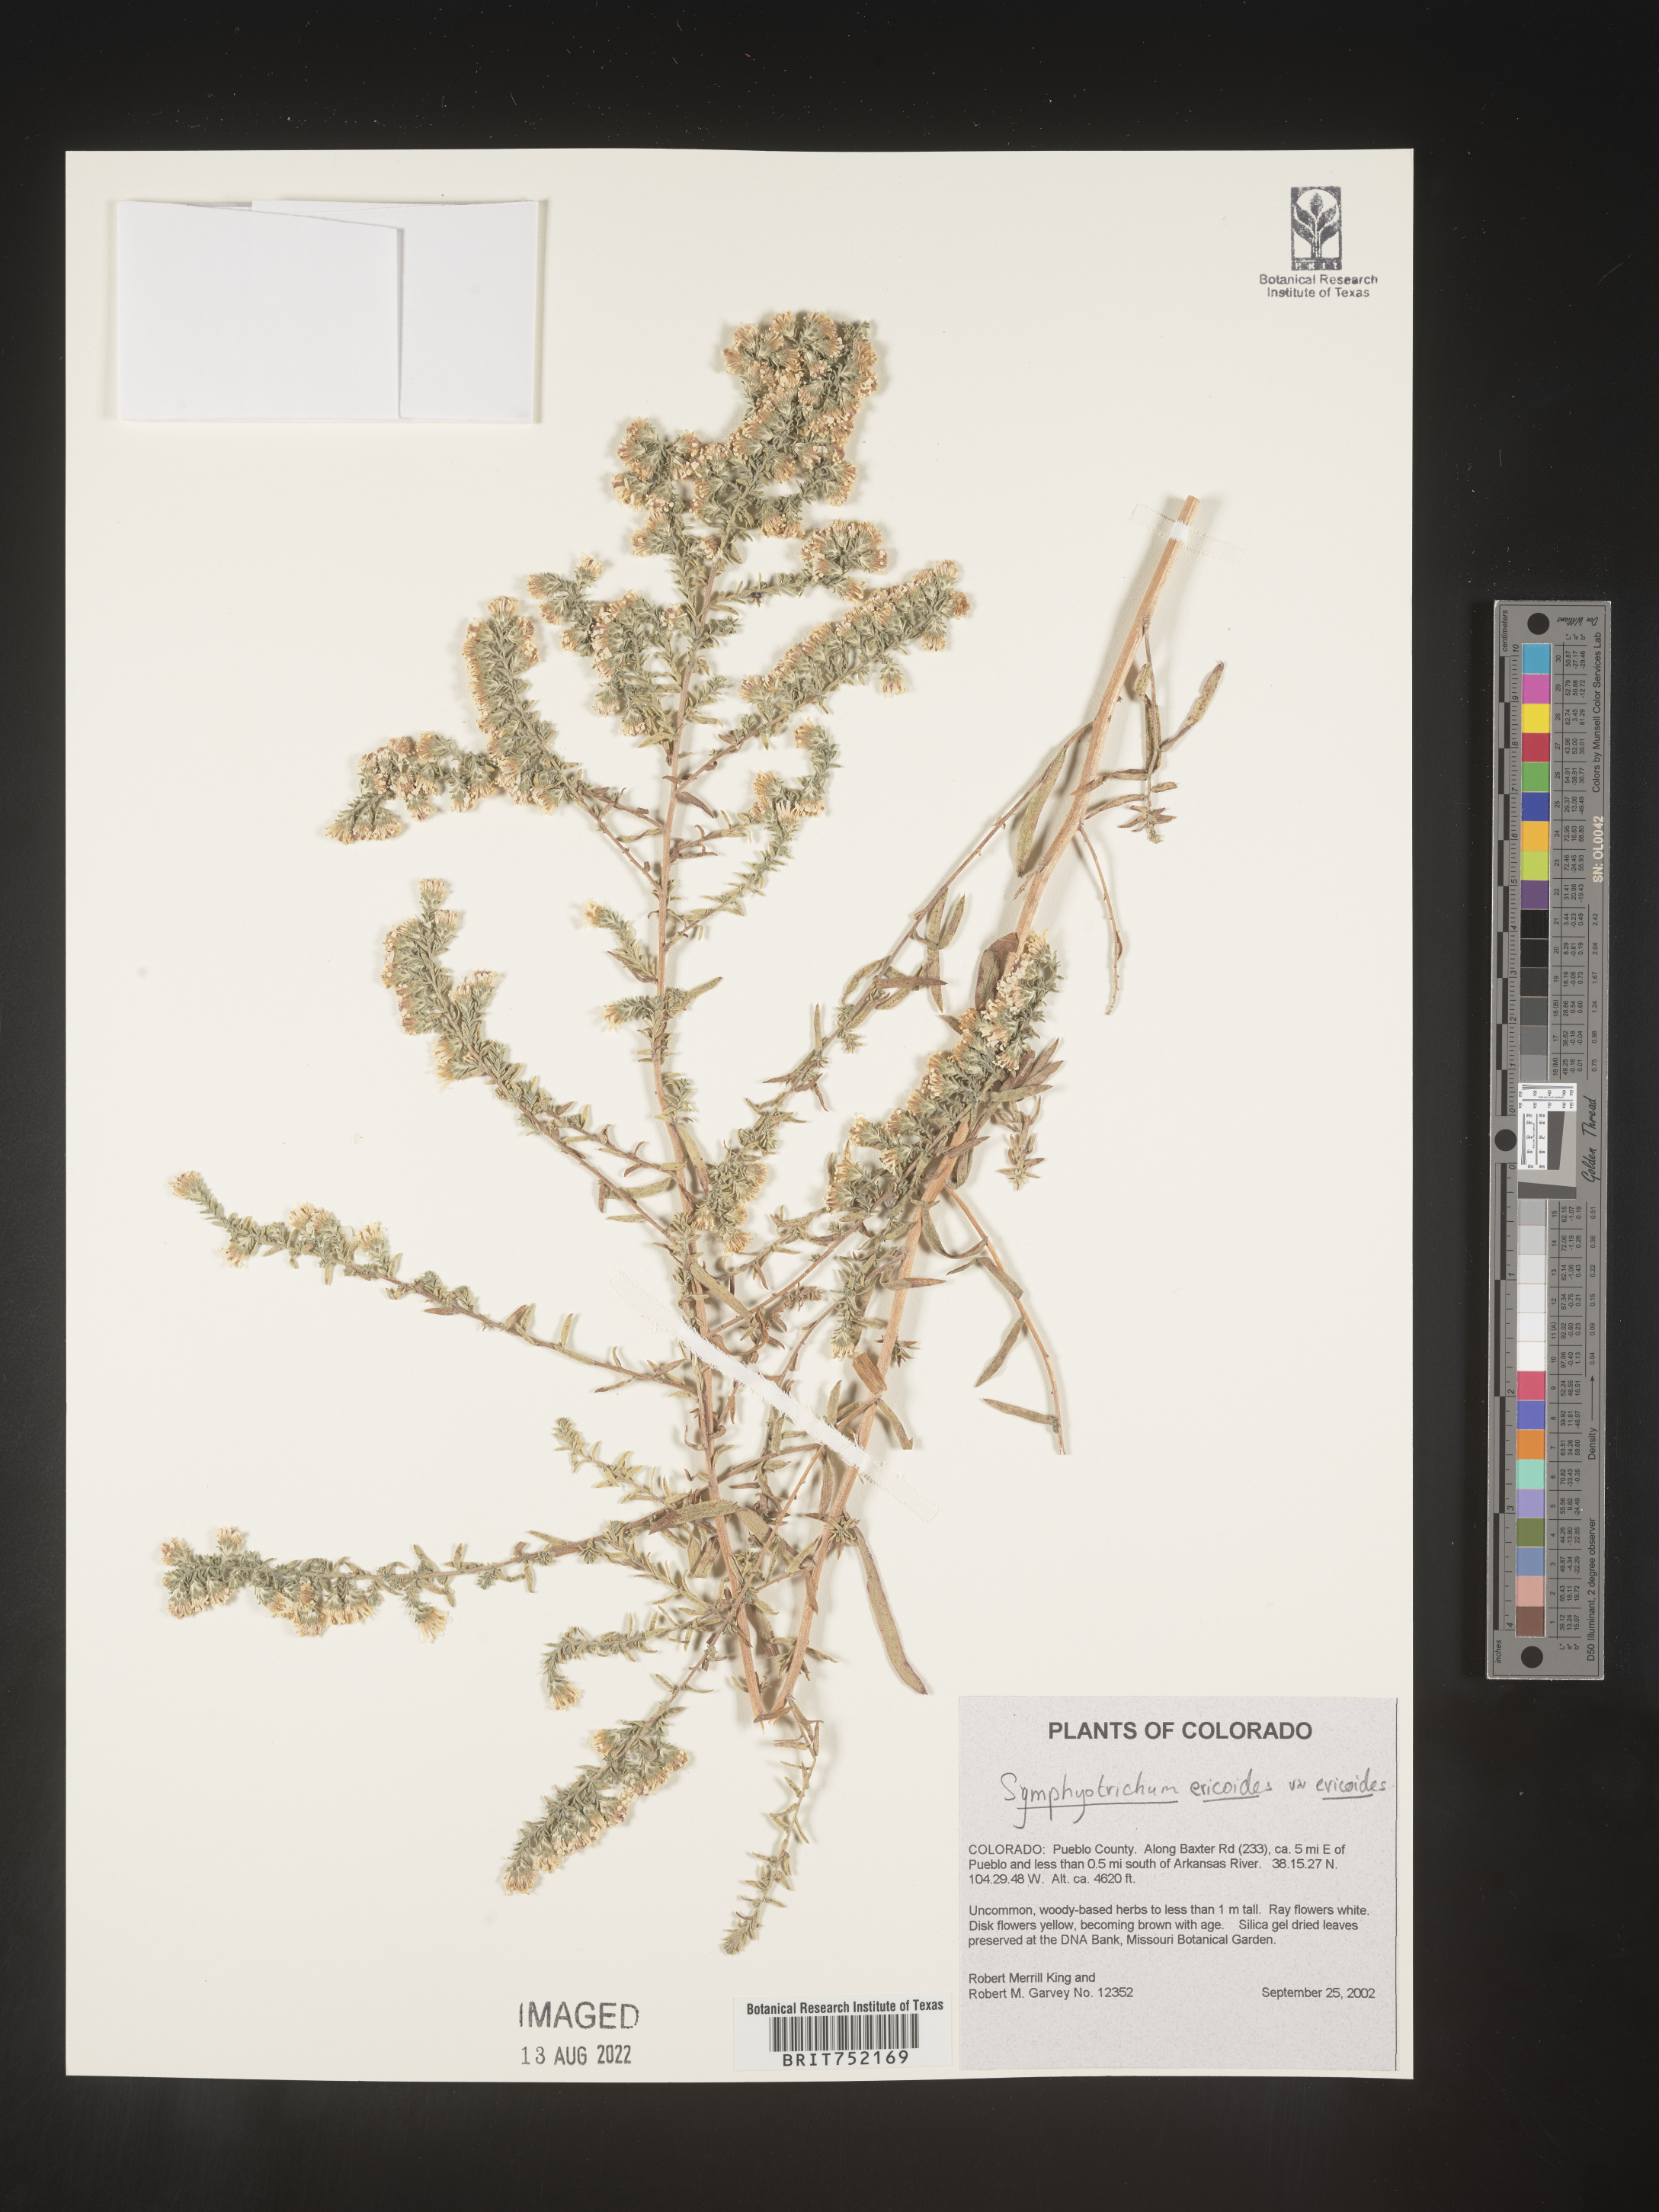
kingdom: Plantae
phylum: Tracheophyta
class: Magnoliopsida
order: Asterales
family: Asteraceae
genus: Symphyotrichum
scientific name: Symphyotrichum ericoides
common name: Heath aster
